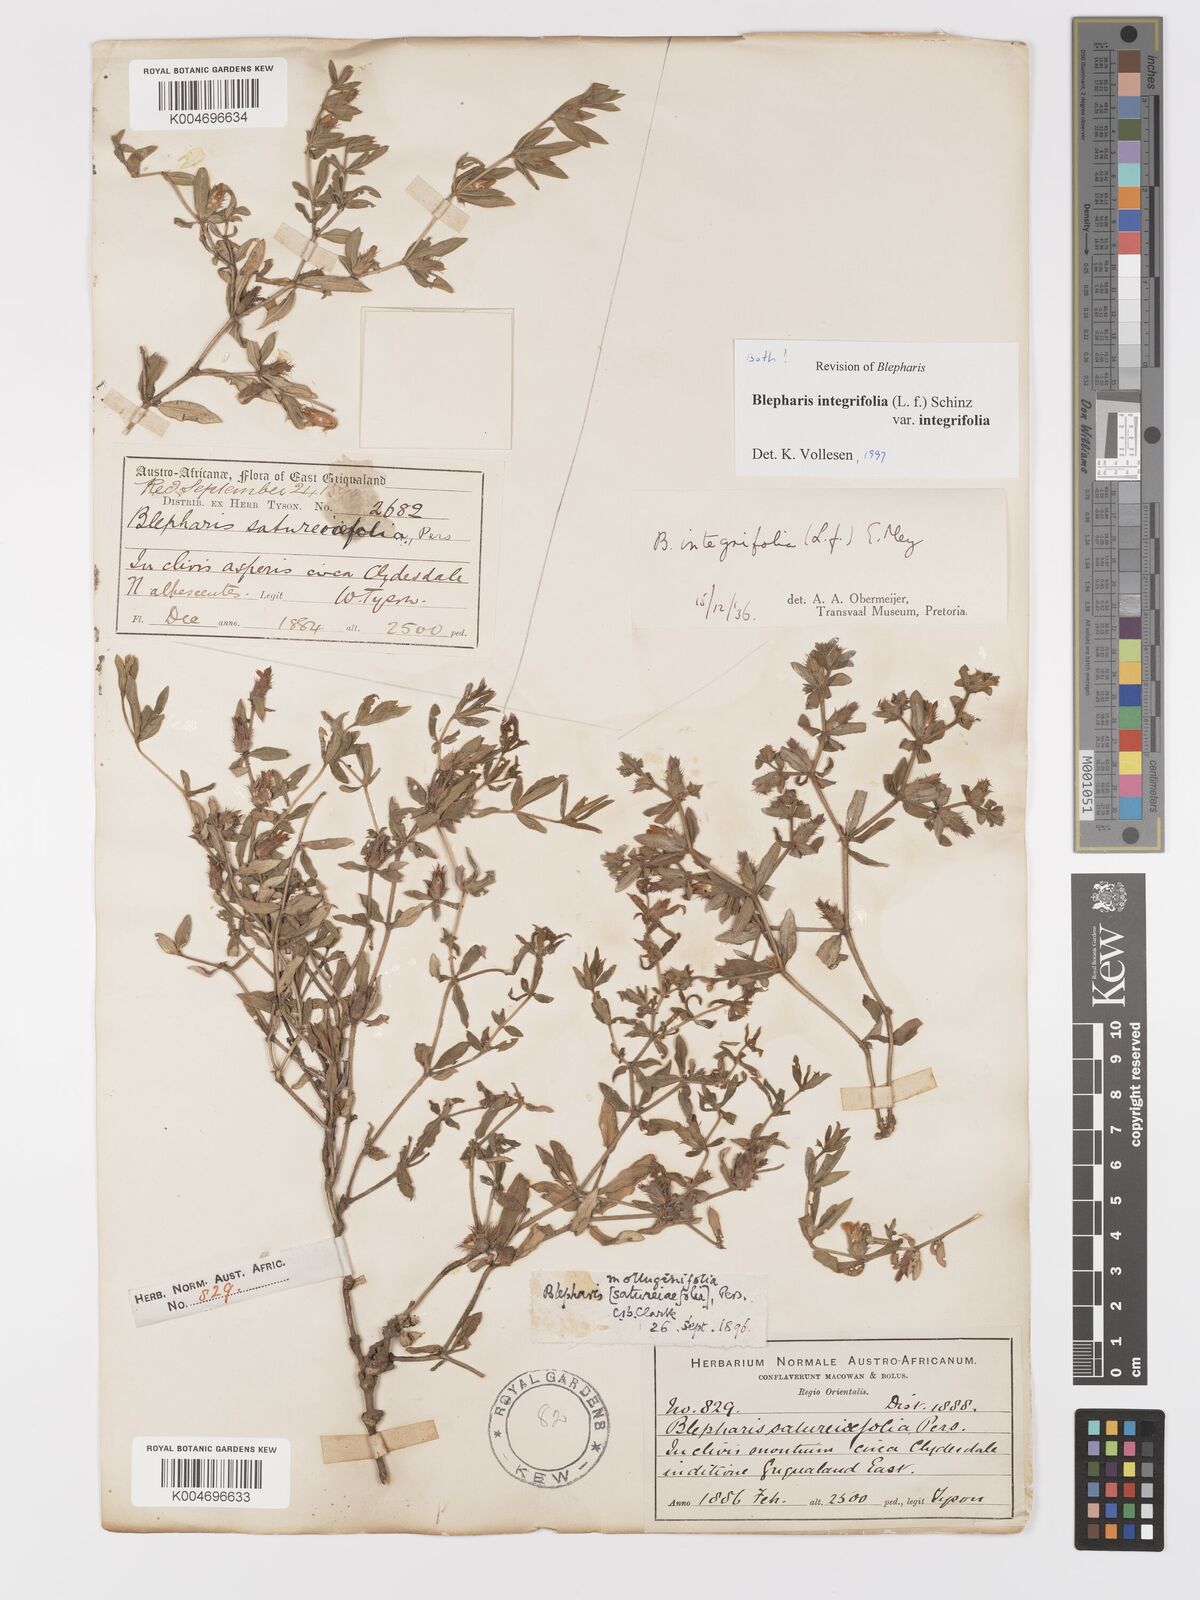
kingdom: Plantae
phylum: Tracheophyta
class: Magnoliopsida
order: Lamiales
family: Acanthaceae
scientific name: Acanthaceae
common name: Acanthaceae
